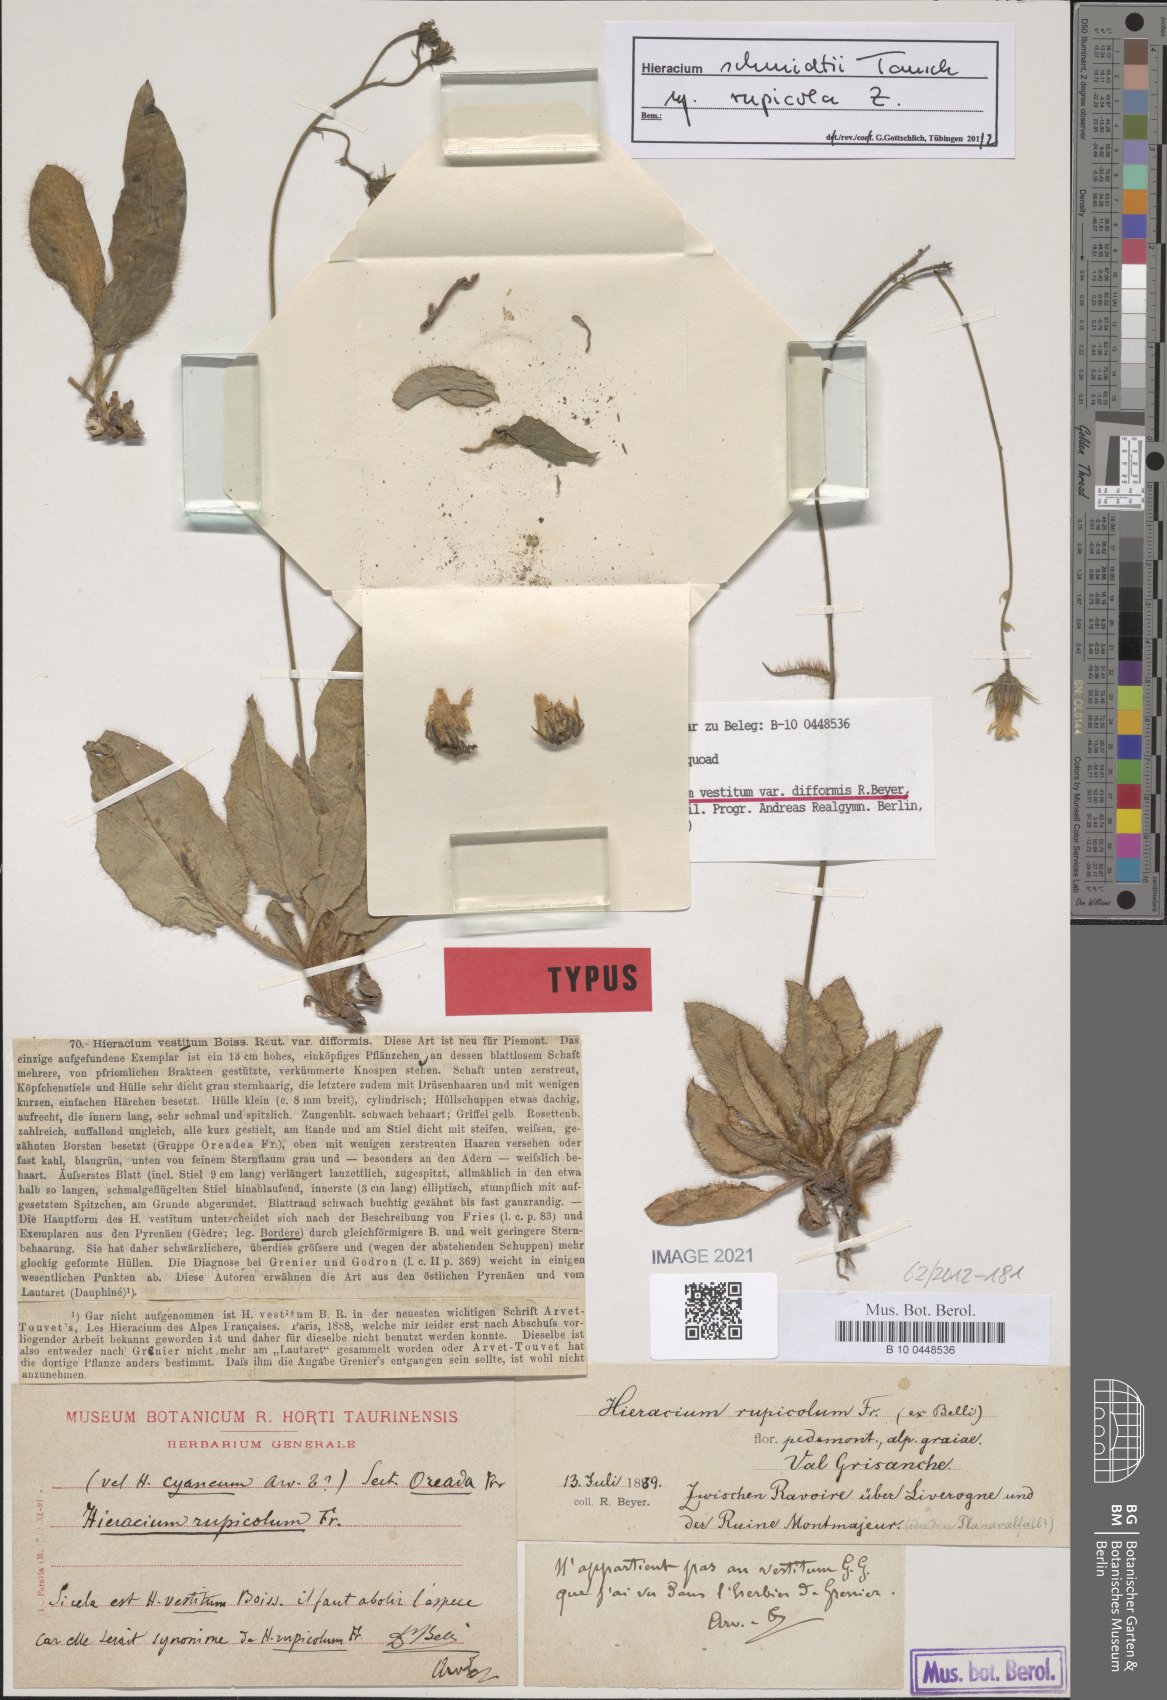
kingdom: Plantae
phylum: Tracheophyta
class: Magnoliopsida
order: Asterales
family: Asteraceae
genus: Hieracium
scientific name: Hieracium rupicola
